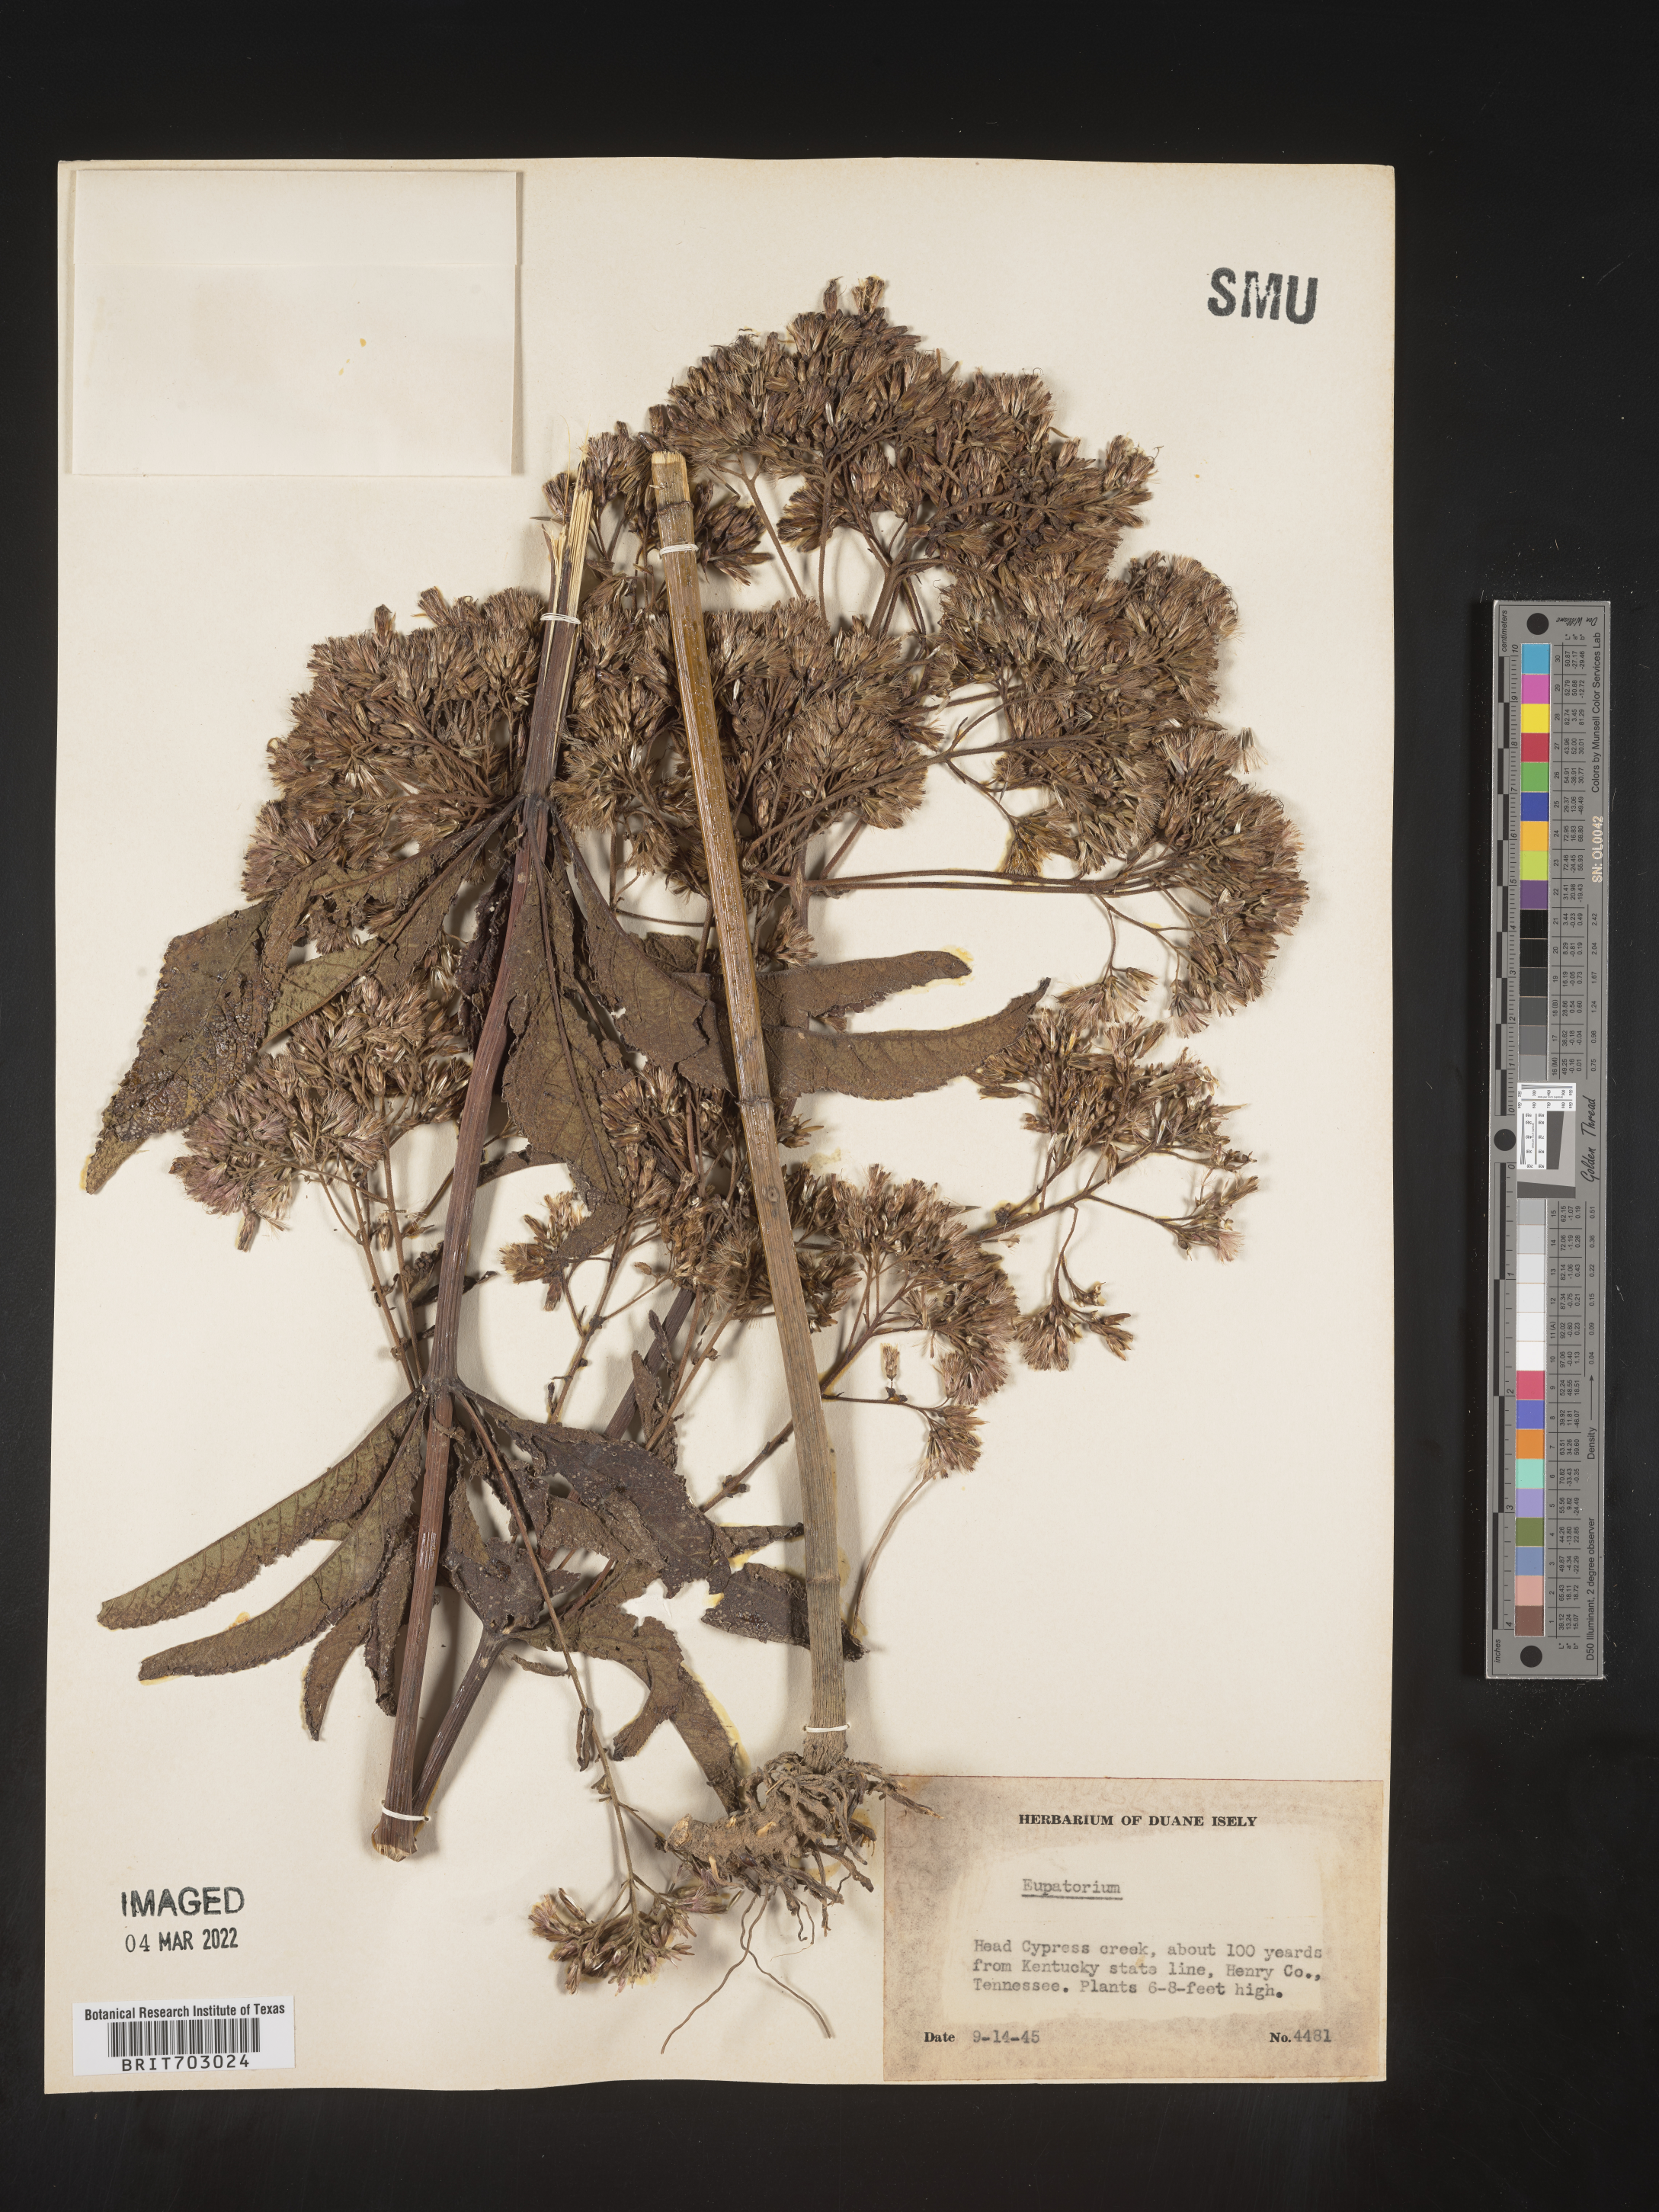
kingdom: Plantae
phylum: Tracheophyta
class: Magnoliopsida
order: Asterales
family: Asteraceae
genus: Eupatorium
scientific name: Eupatorium
